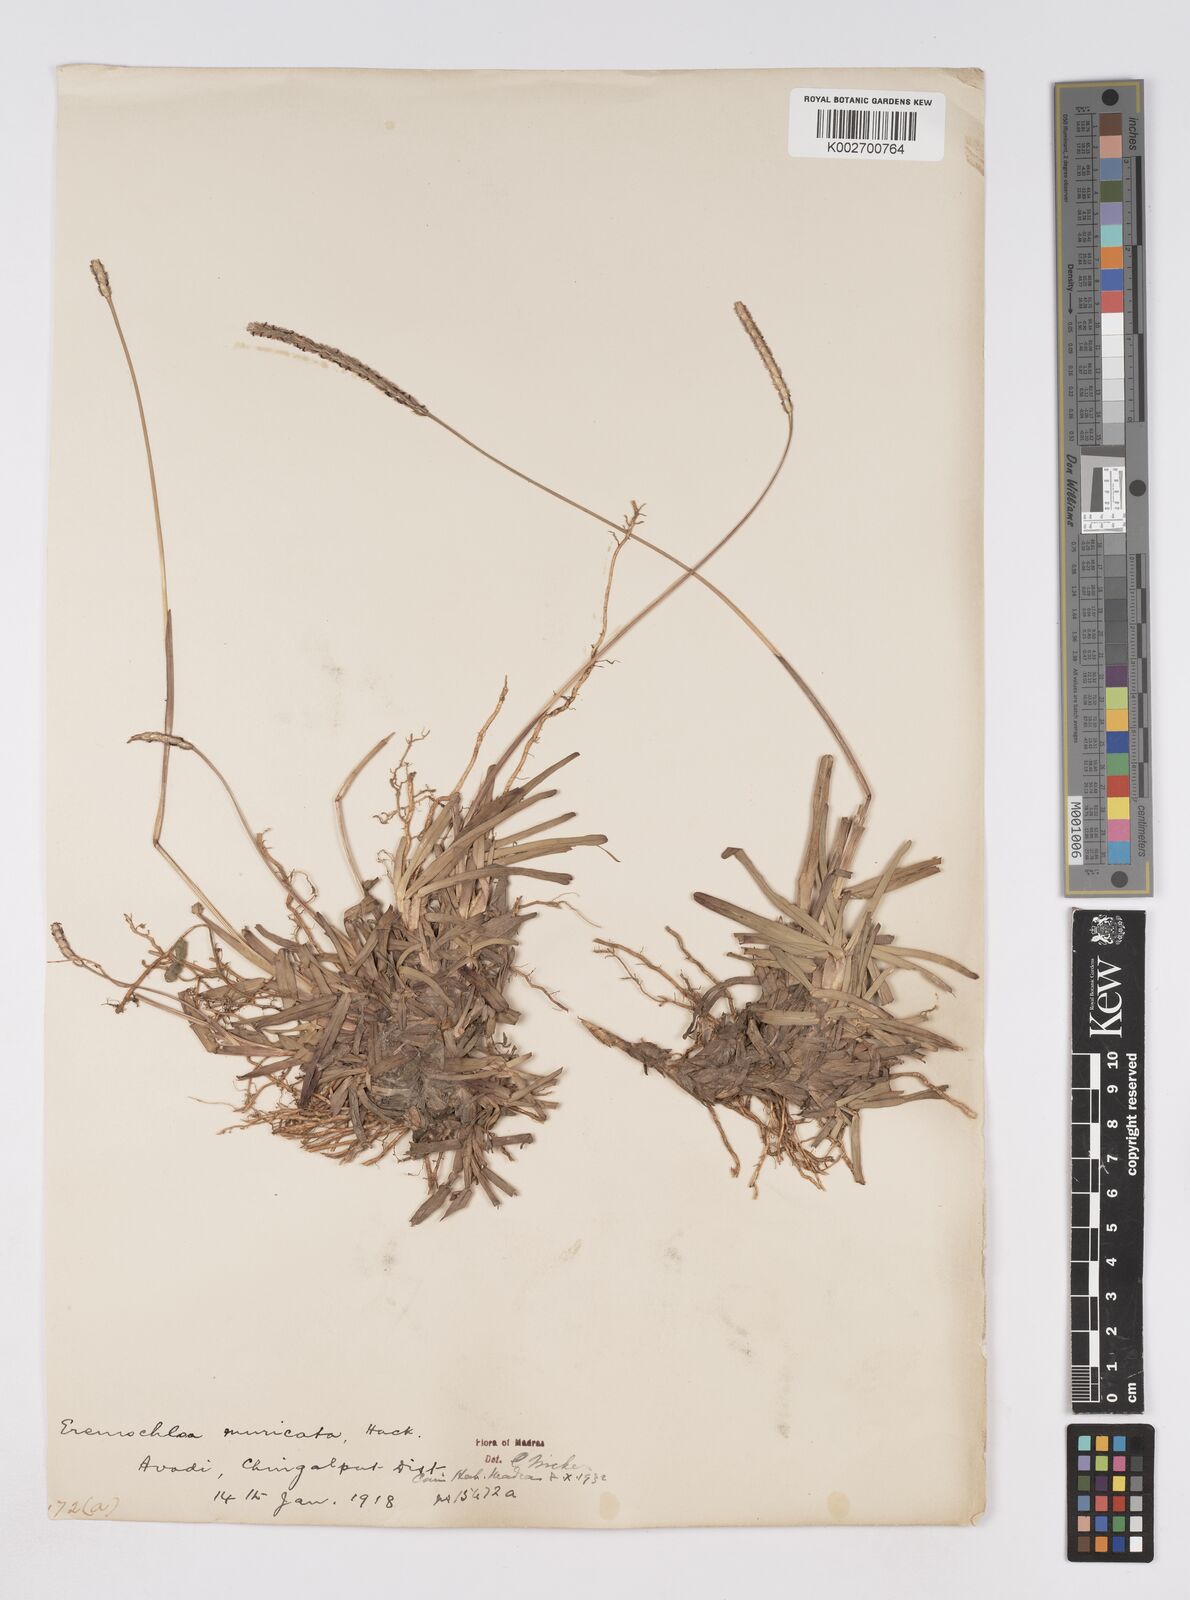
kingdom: Plantae
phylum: Tracheophyta
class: Liliopsida
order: Poales
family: Poaceae
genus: Eremochloa
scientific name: Eremochloa muricata
